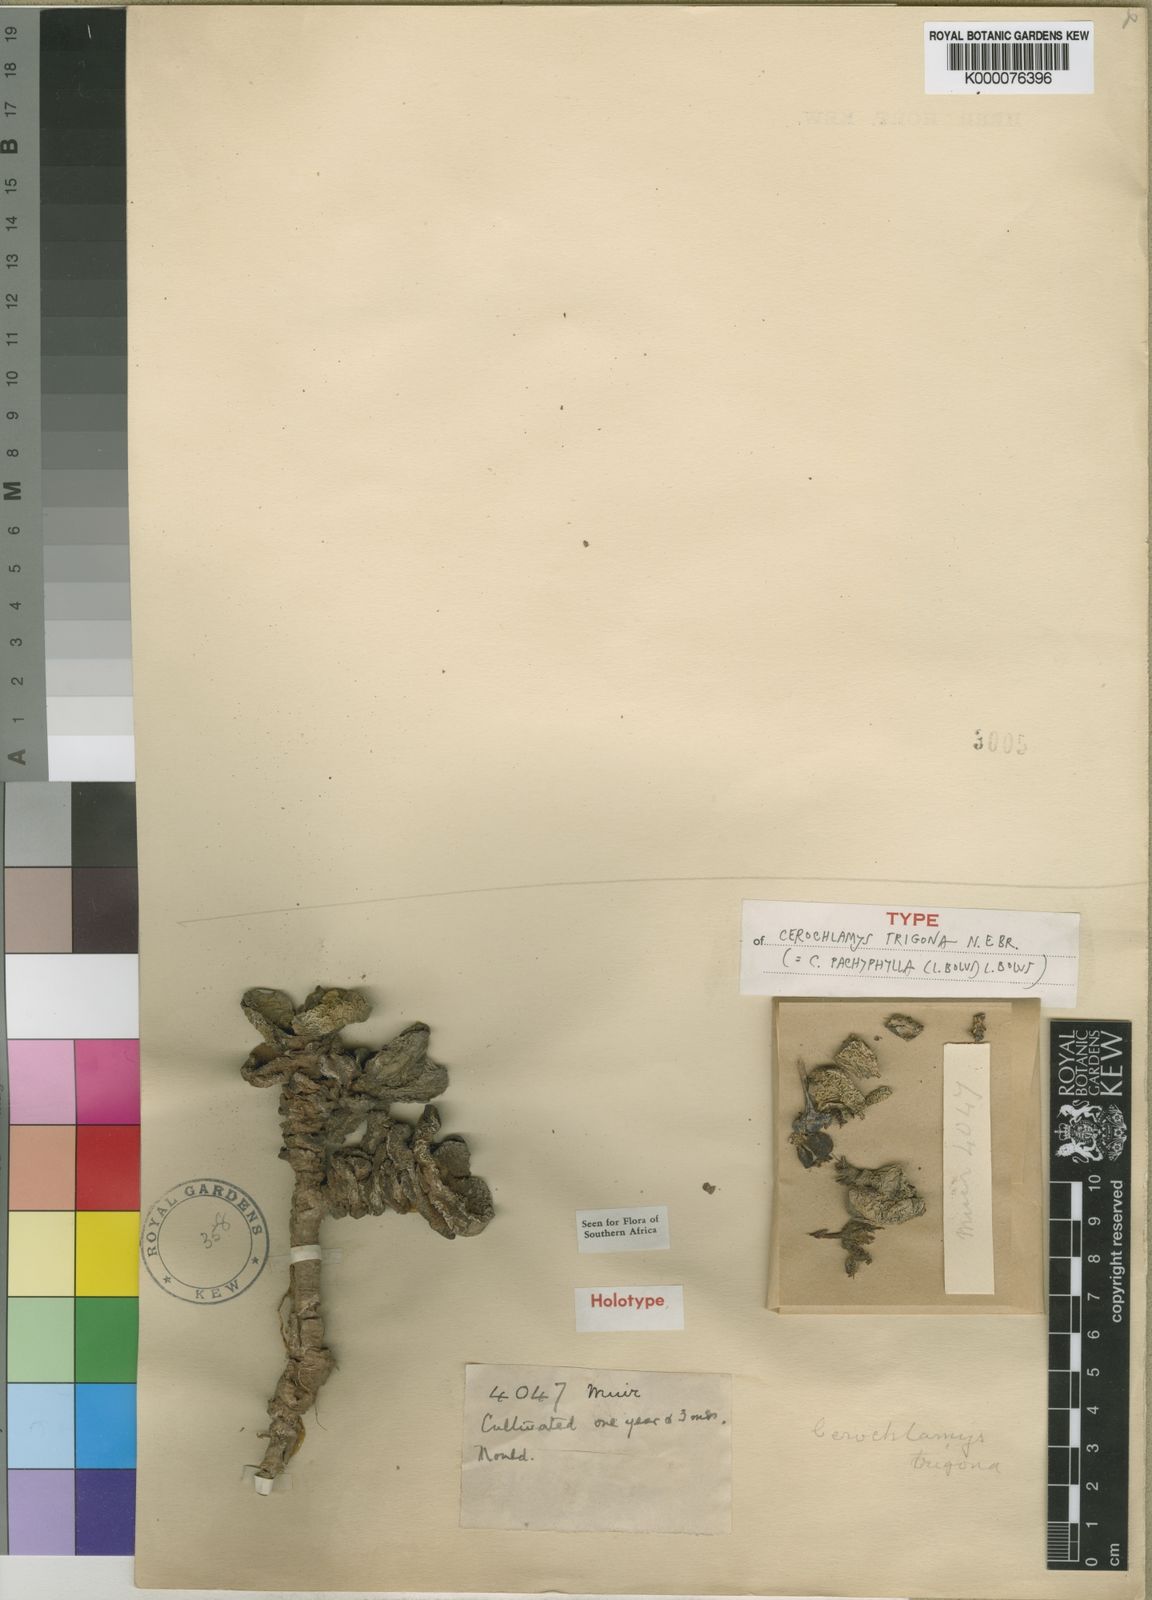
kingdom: Plantae
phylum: Tracheophyta
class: Magnoliopsida
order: Caryophyllales
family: Aizoaceae
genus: Cerochlamys
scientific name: Cerochlamys pachyphylla
